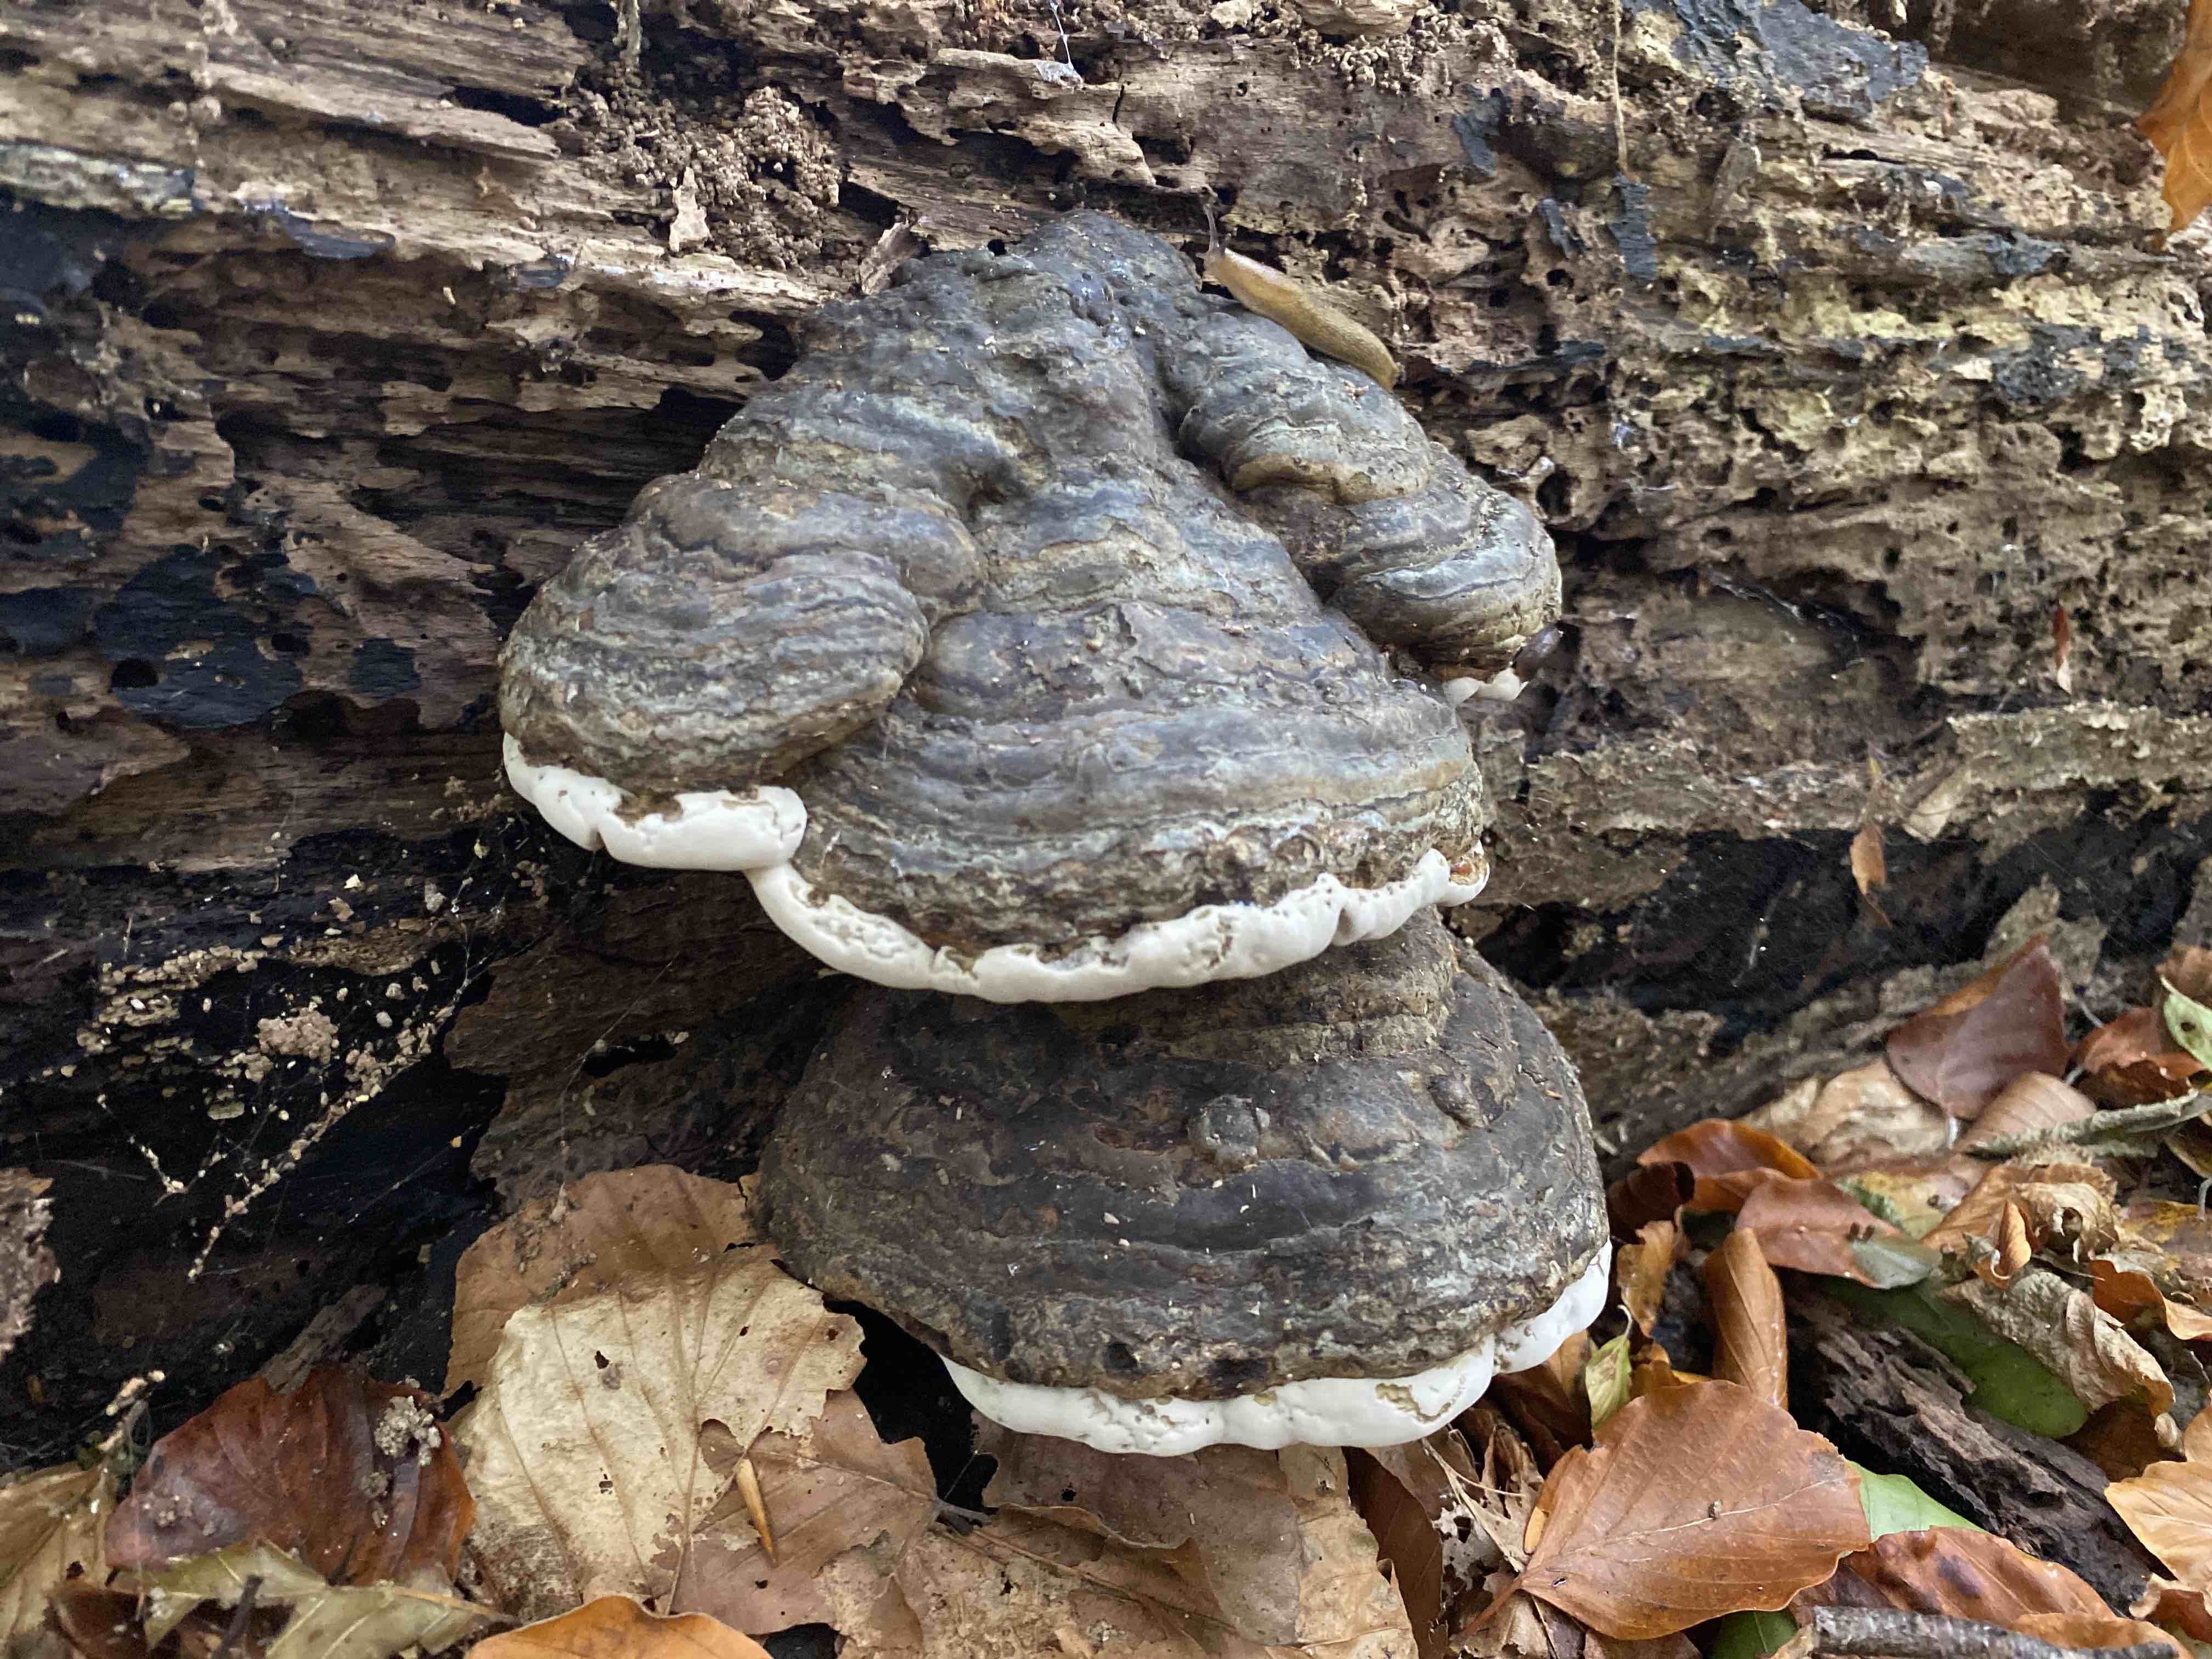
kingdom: Fungi
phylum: Basidiomycota
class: Agaricomycetes
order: Polyporales
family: Polyporaceae
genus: Fomes
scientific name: Fomes fomentarius
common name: tøndersvamp
